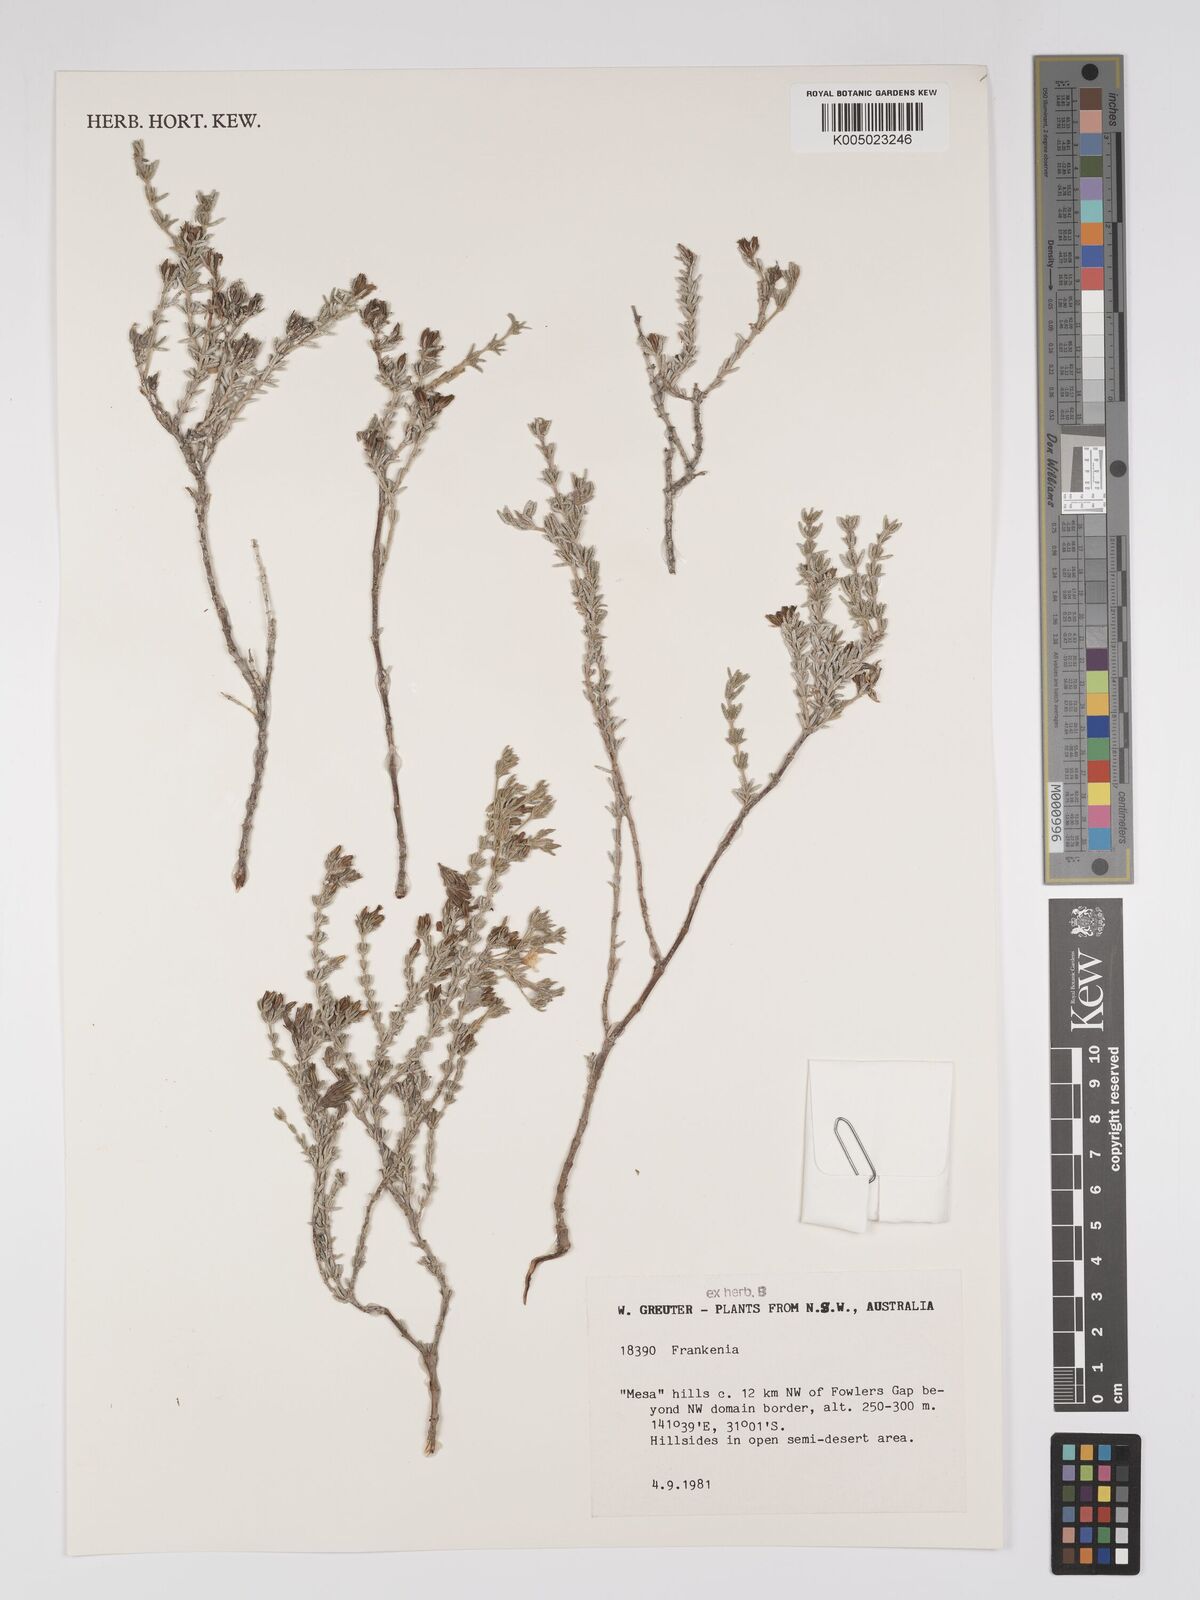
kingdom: Plantae
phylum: Tracheophyta
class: Magnoliopsida
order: Caryophyllales
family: Frankeniaceae
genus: Frankenia
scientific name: Frankenia
